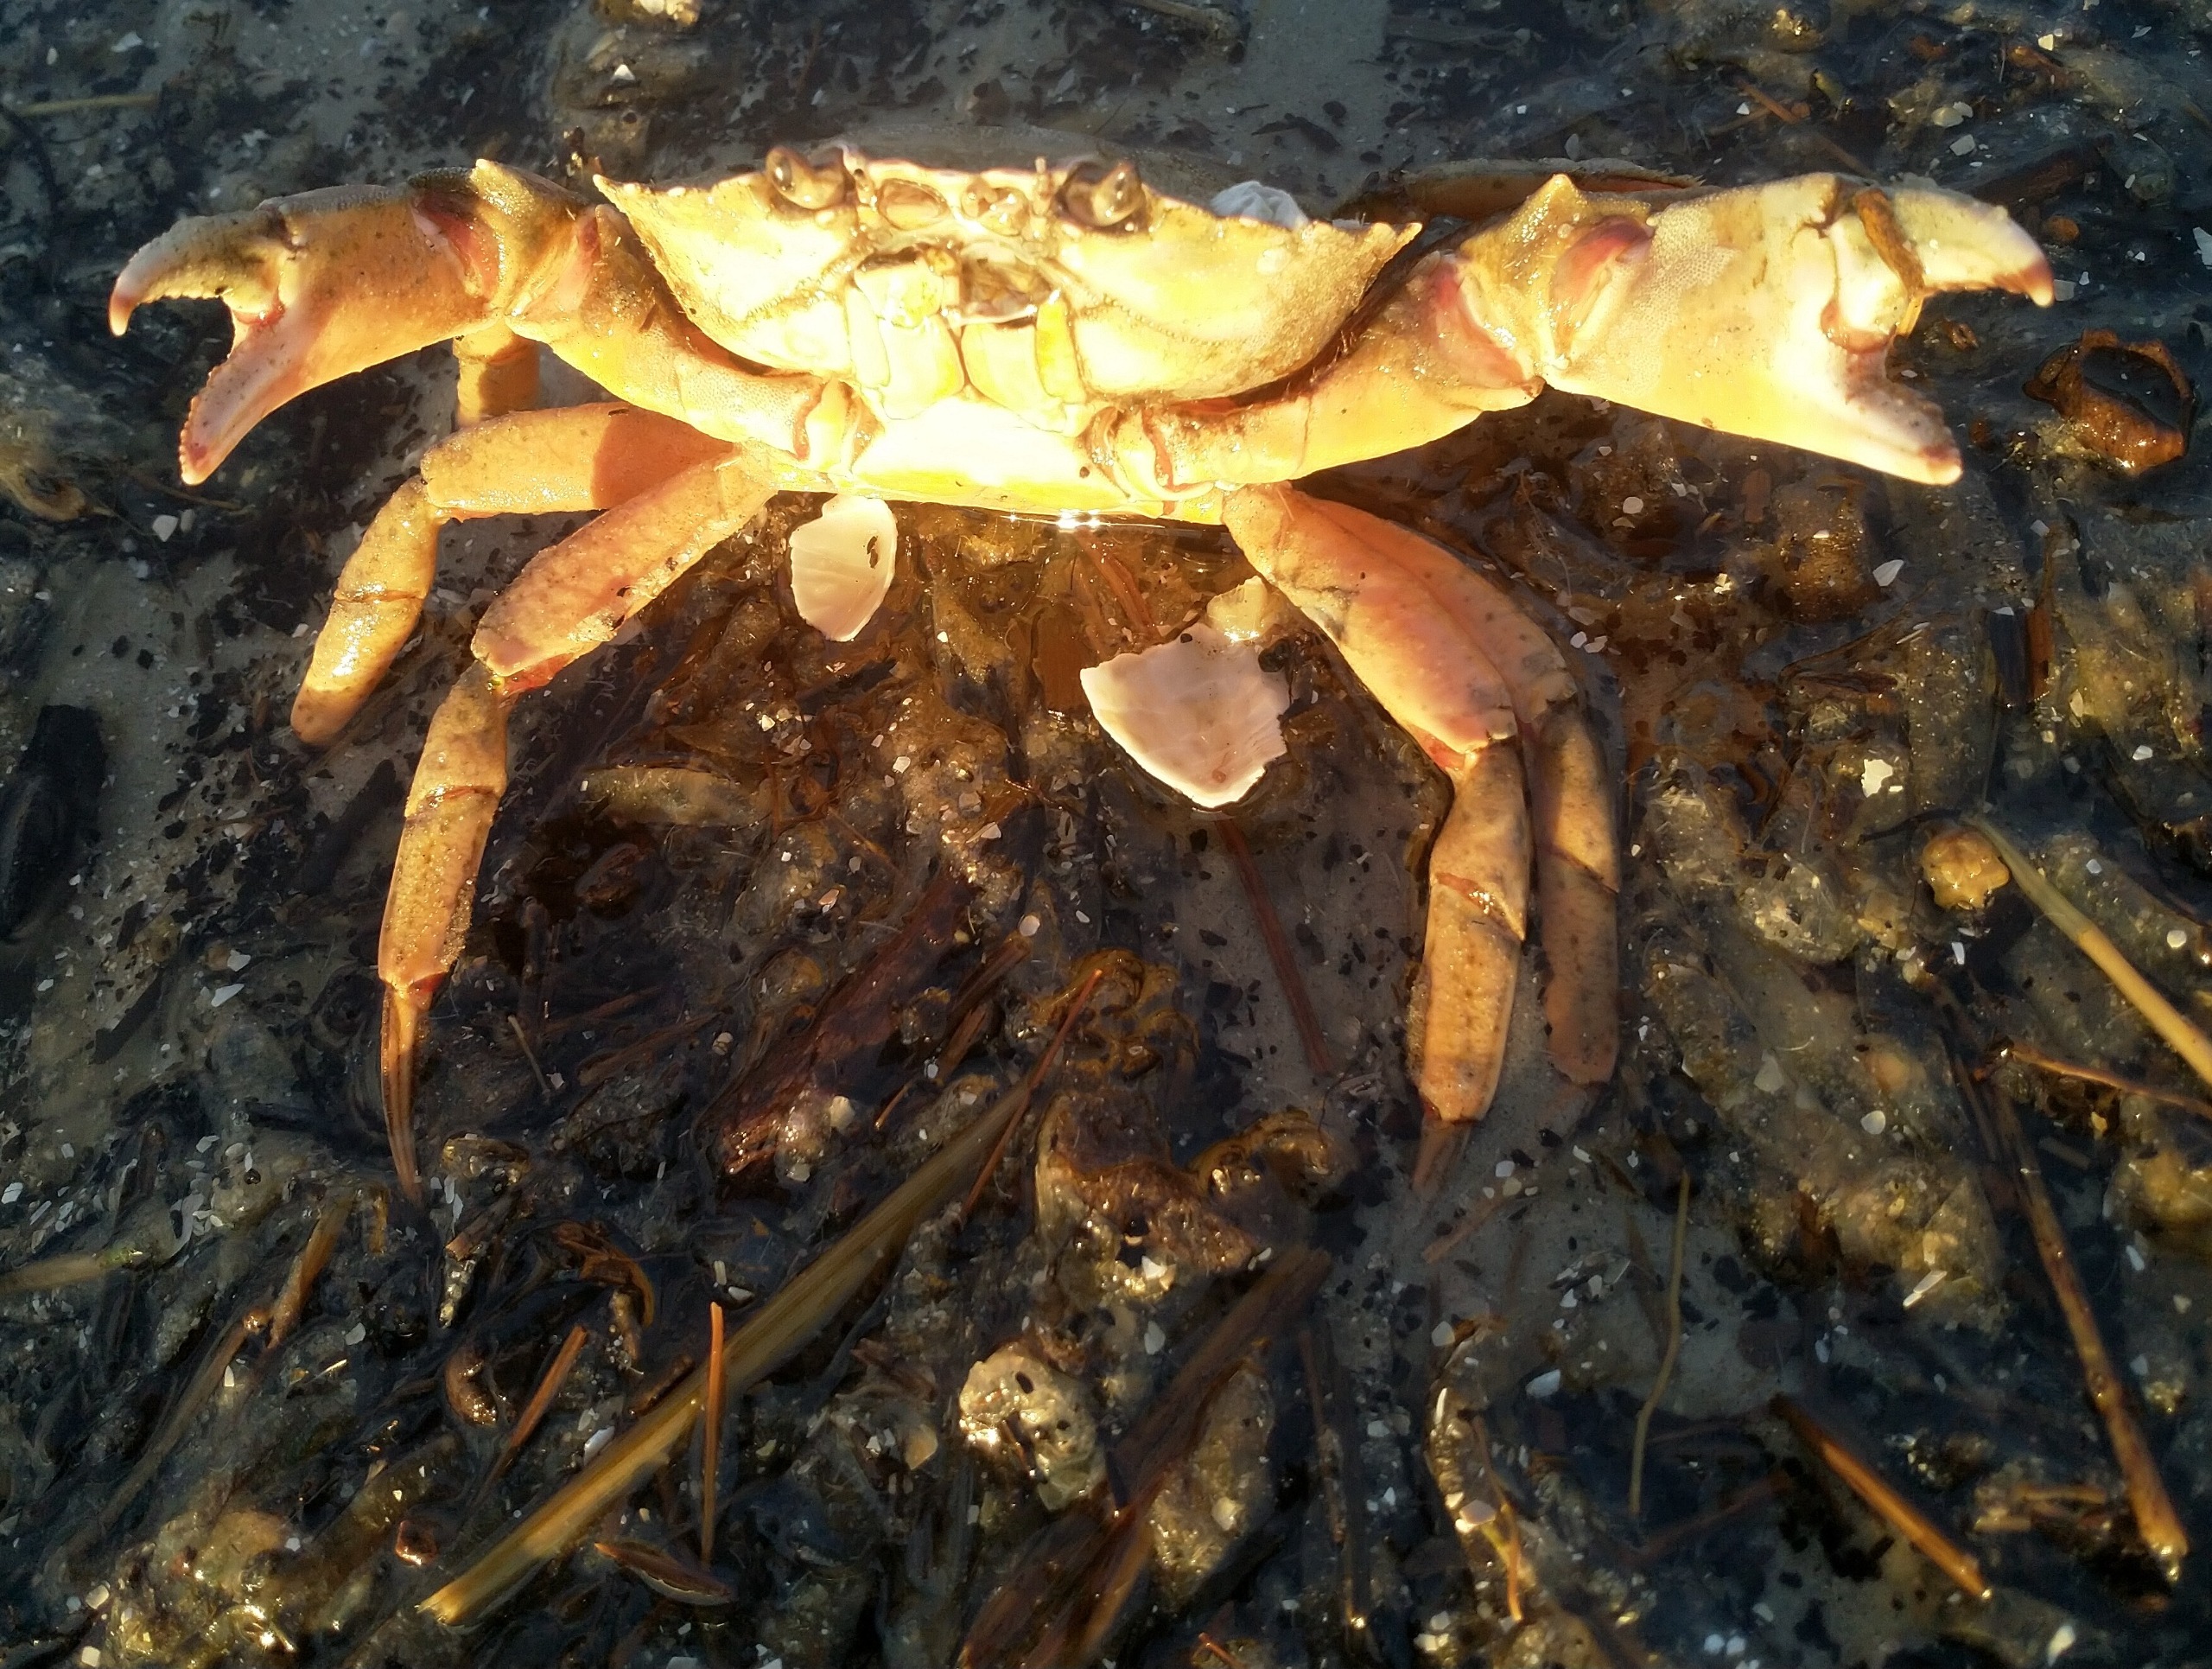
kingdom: Animalia
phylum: Arthropoda
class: Malacostraca
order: Decapoda
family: Carcinidae
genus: Carcinus
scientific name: Carcinus maenas
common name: Almindelig strandkrabbe
